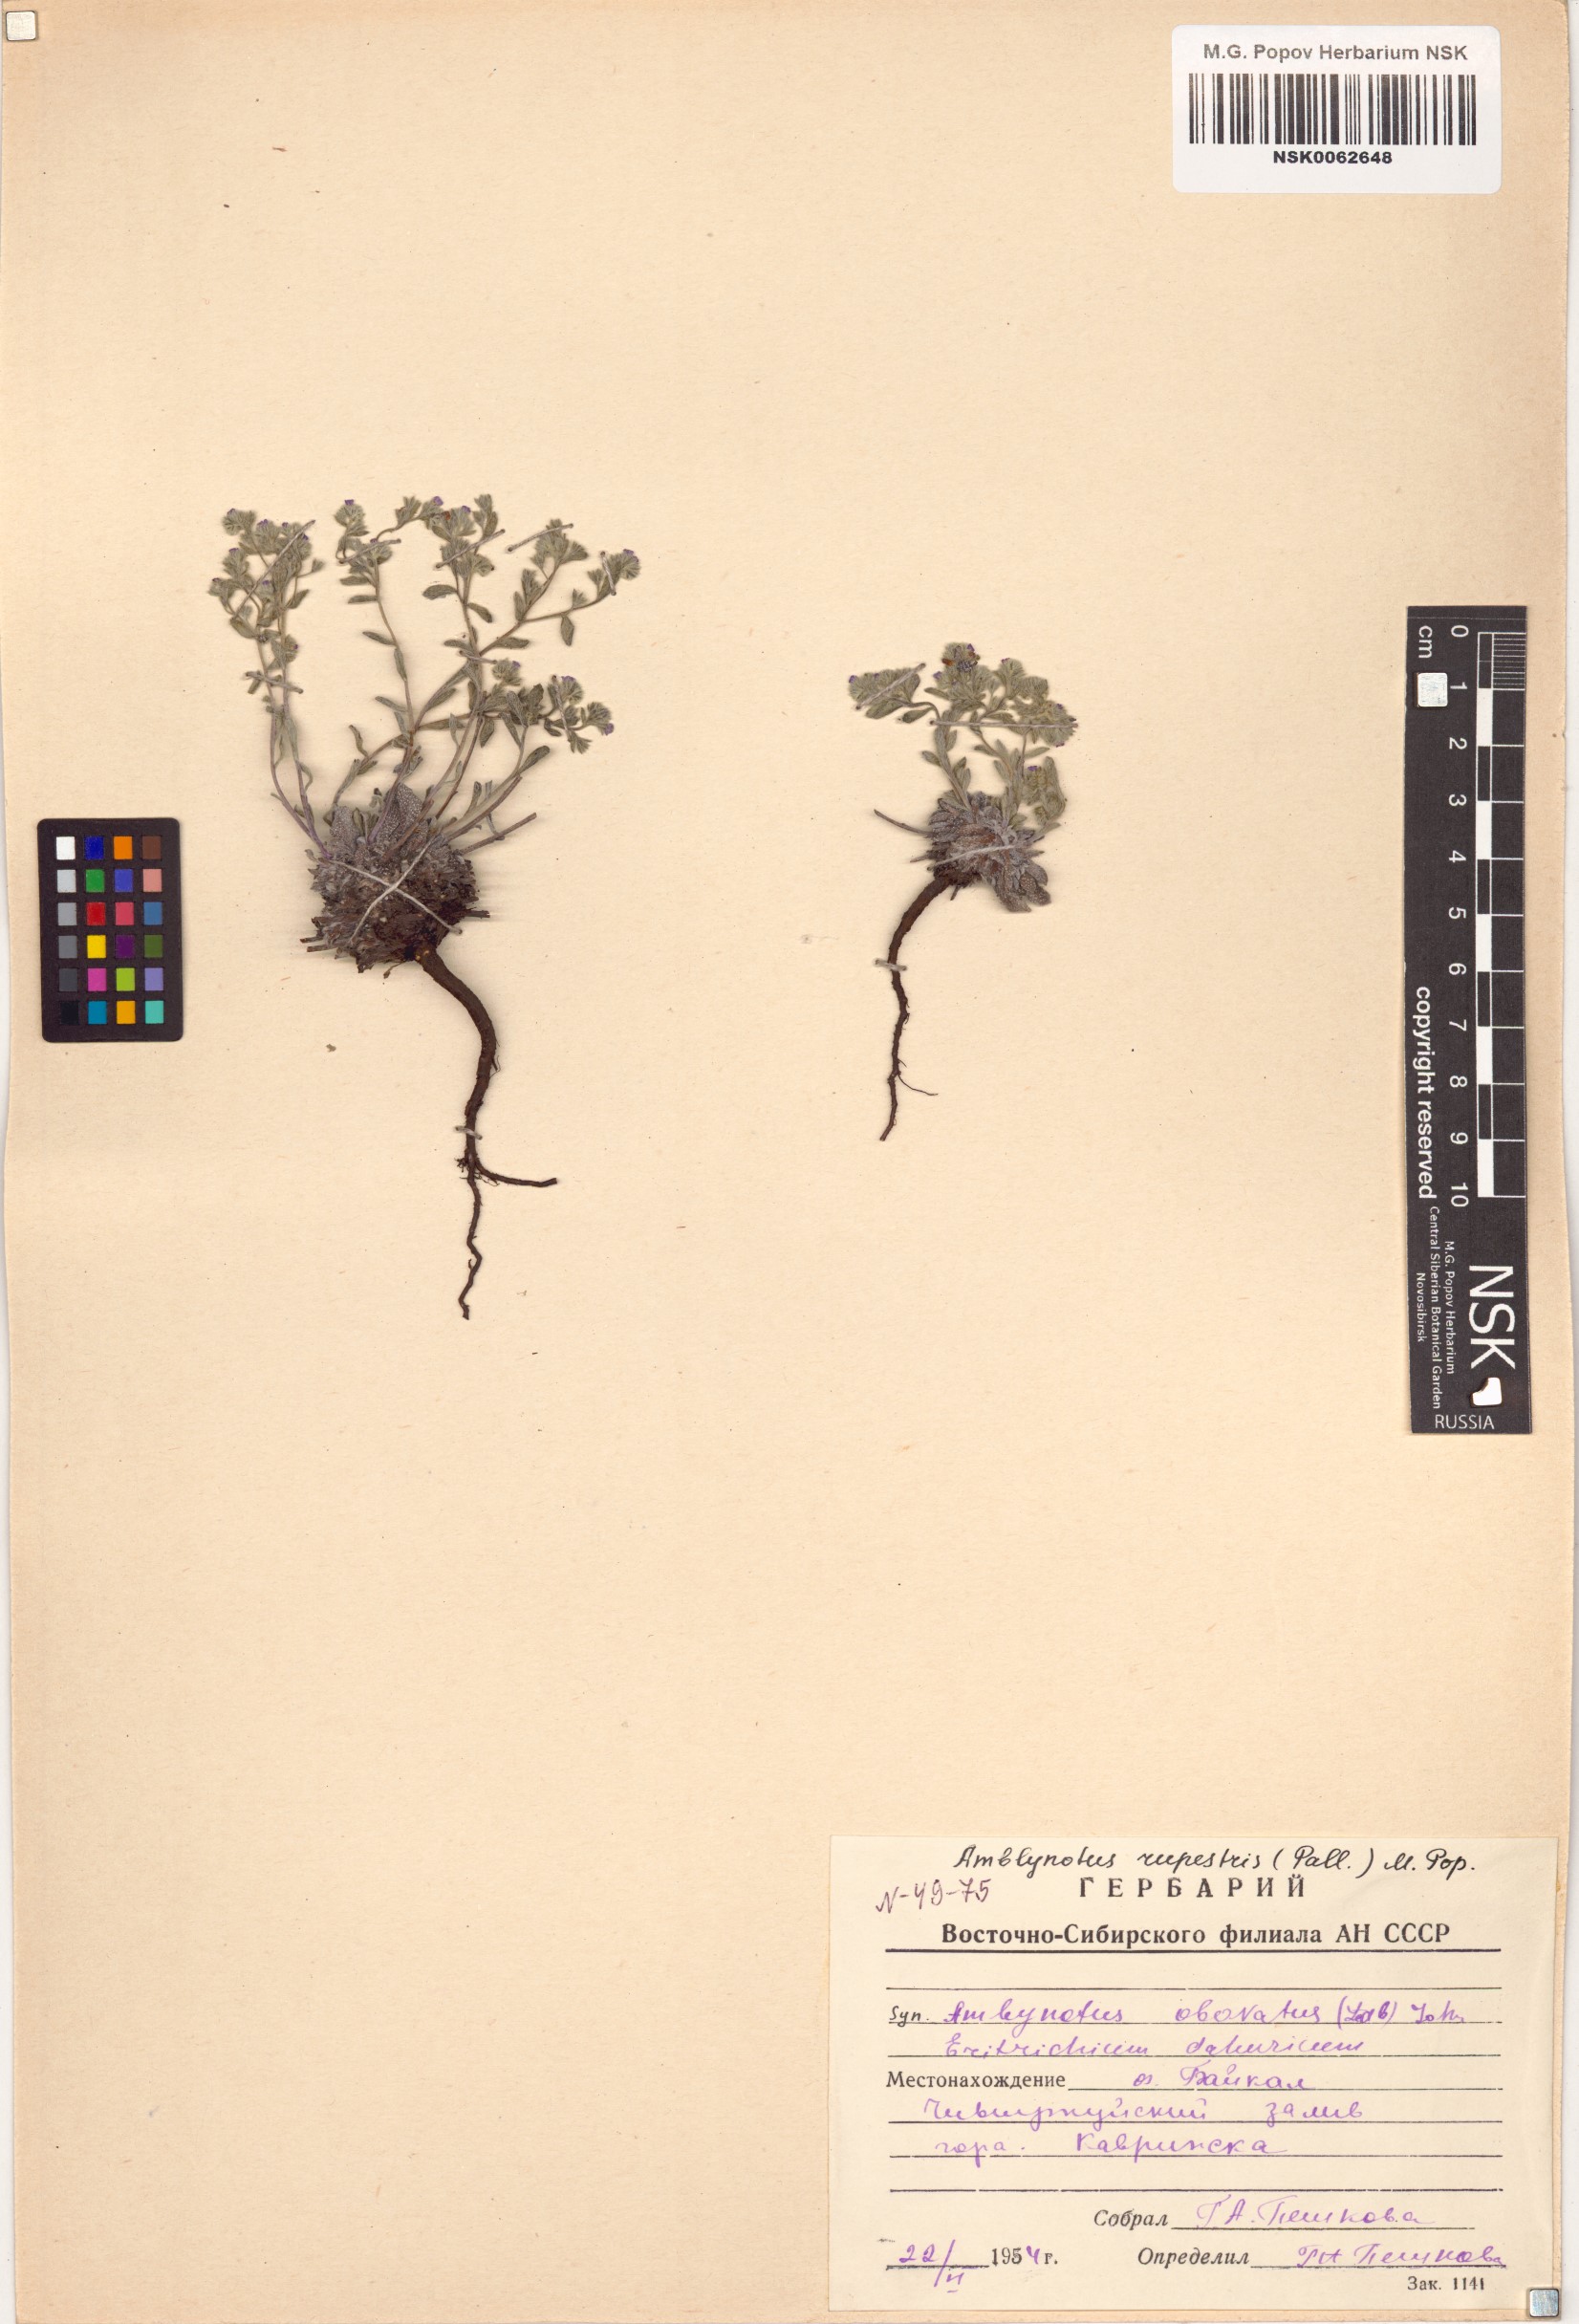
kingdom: Plantae
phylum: Tracheophyta
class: Magnoliopsida
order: Boraginales
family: Boraginaceae
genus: Eritrichium
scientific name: Eritrichium rupestre
